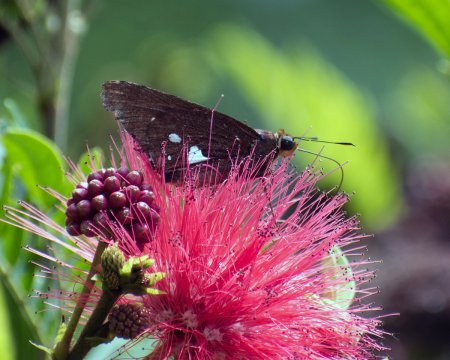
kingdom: Animalia
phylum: Arthropoda
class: Insecta
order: Lepidoptera
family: Hesperiidae
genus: Aides
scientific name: Aides aegita
